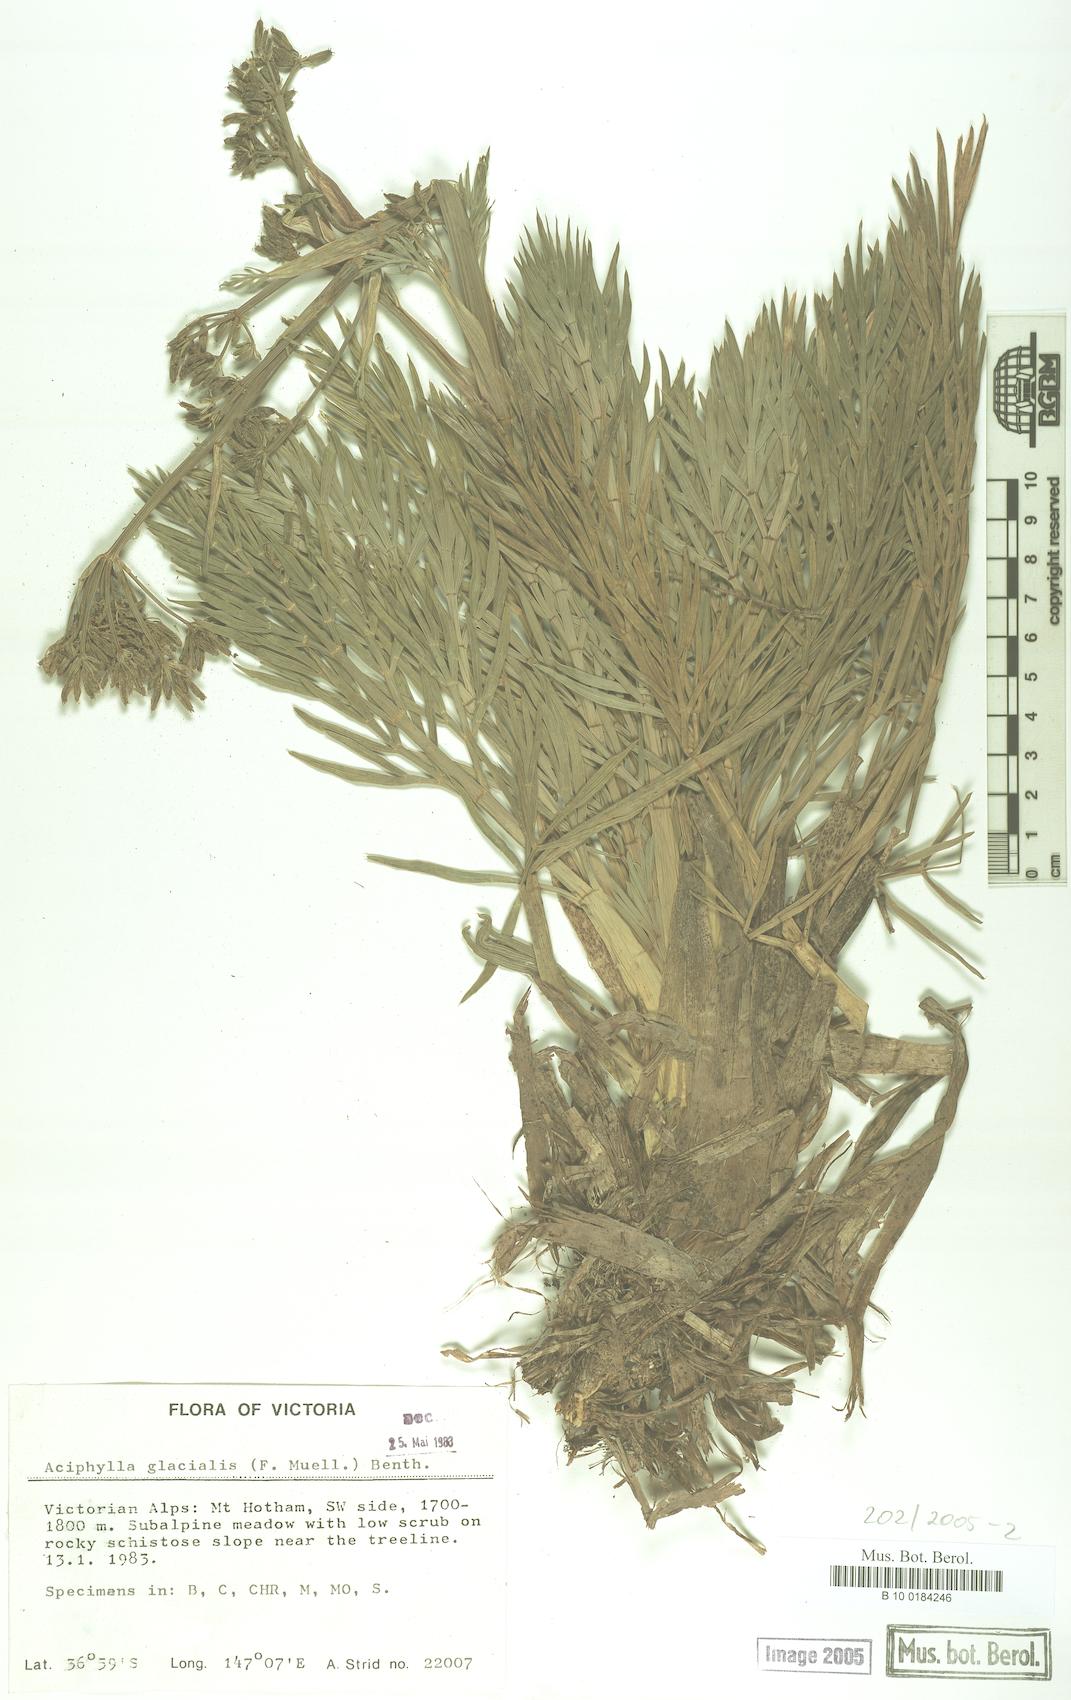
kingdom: Plantae
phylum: Tracheophyta
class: Magnoliopsida
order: Apiales
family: Apiaceae
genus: Aciphylla
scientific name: Aciphylla glacialis
